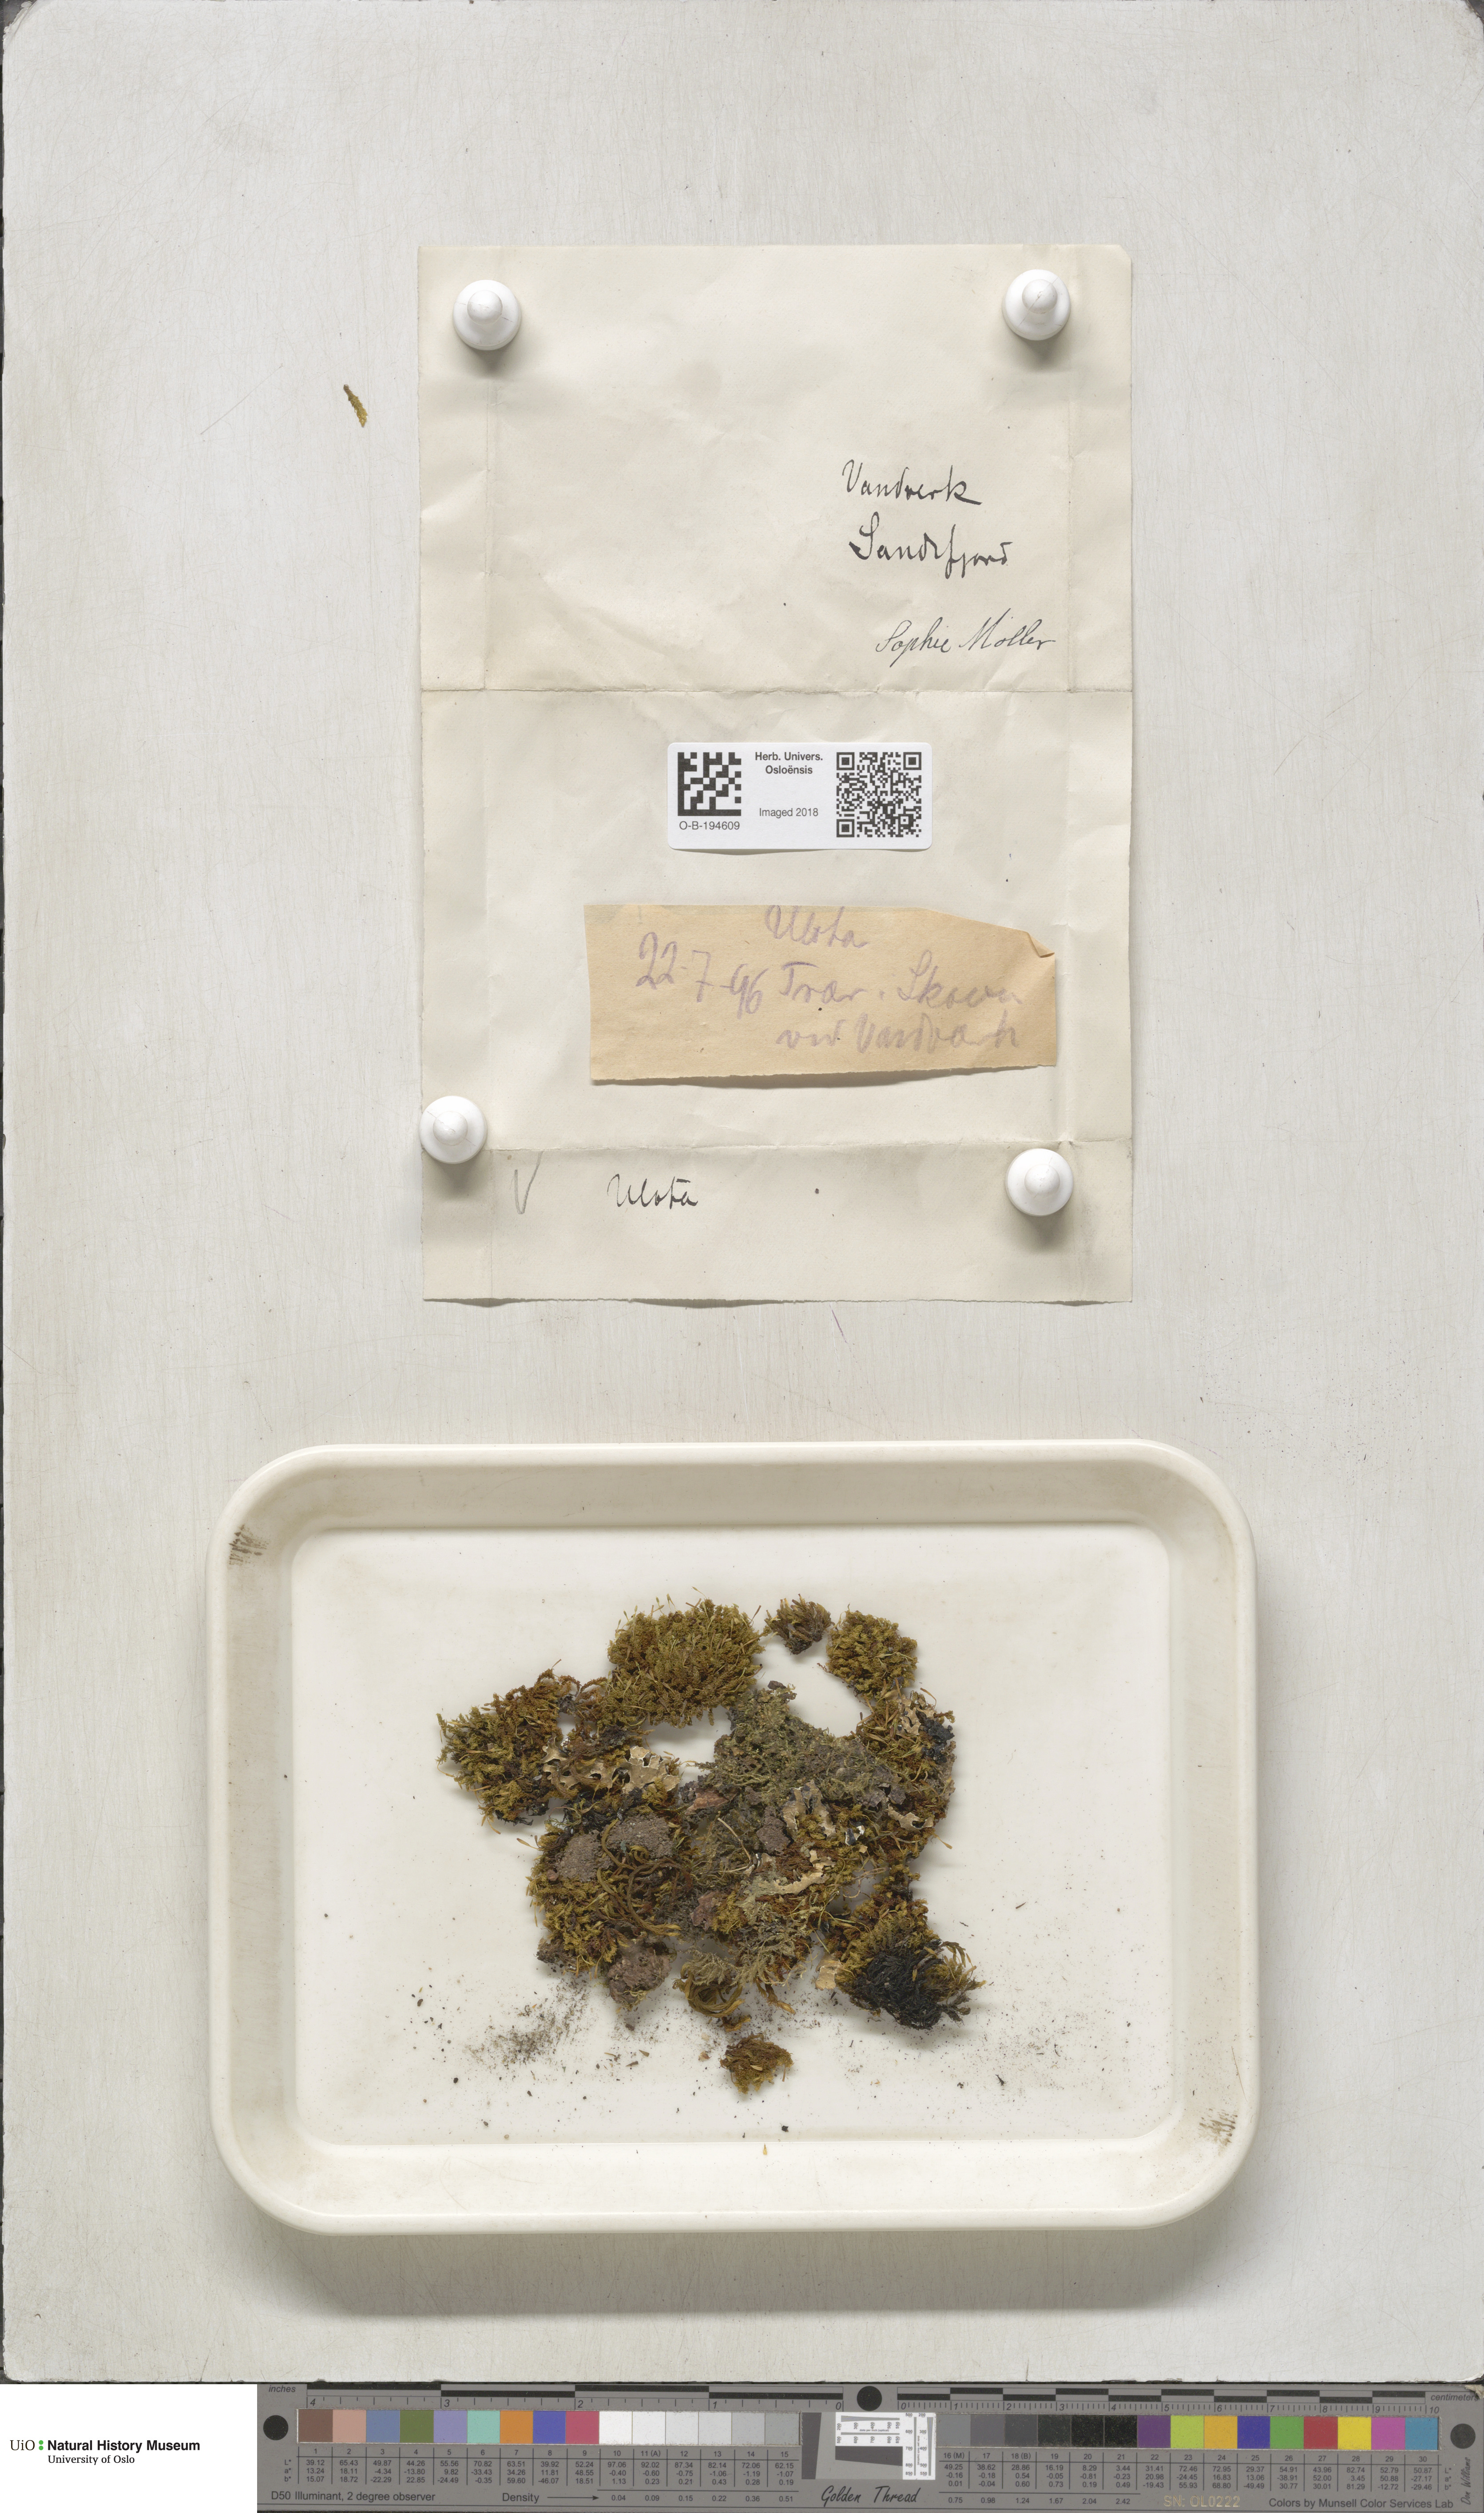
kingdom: Plantae
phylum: Bryophyta
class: Bryopsida
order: Orthotrichales
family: Orthotrichaceae
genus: Ulota
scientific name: Ulota
